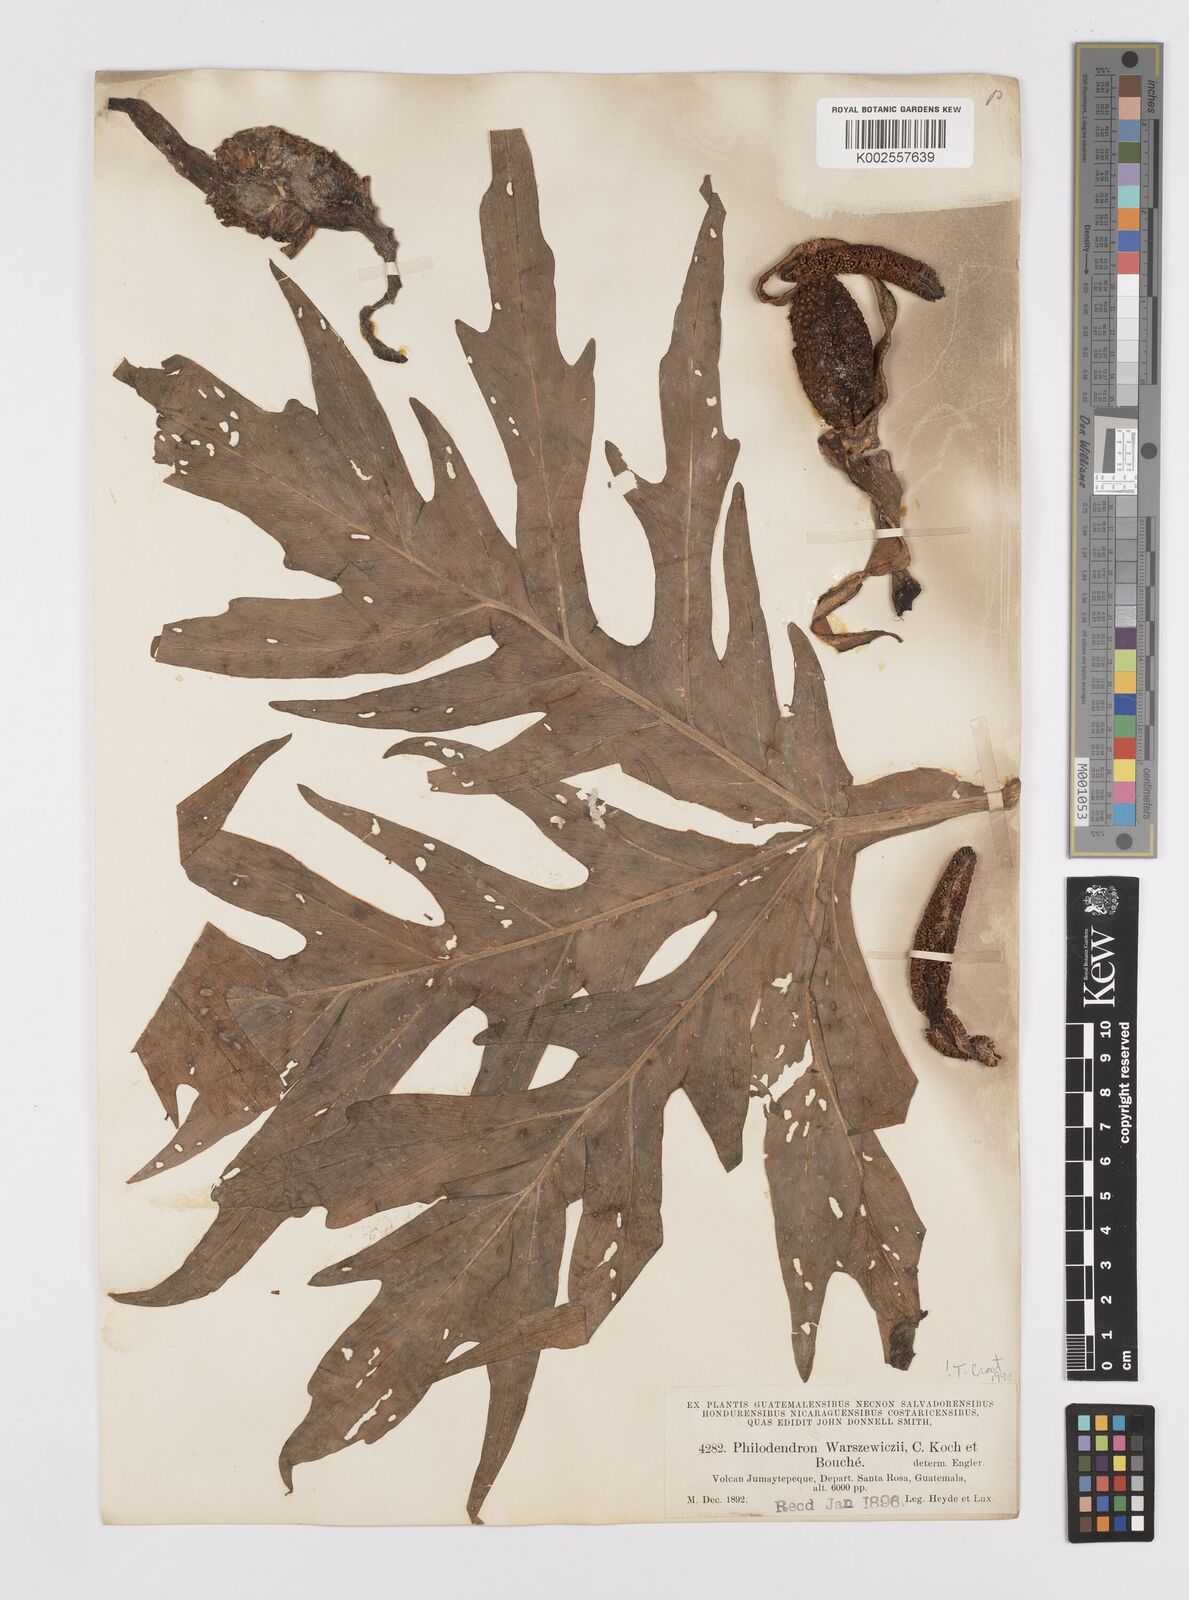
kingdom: Plantae
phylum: Tracheophyta
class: Liliopsida
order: Alismatales
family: Araceae
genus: Philodendron
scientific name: Philodendron warszewiczii
